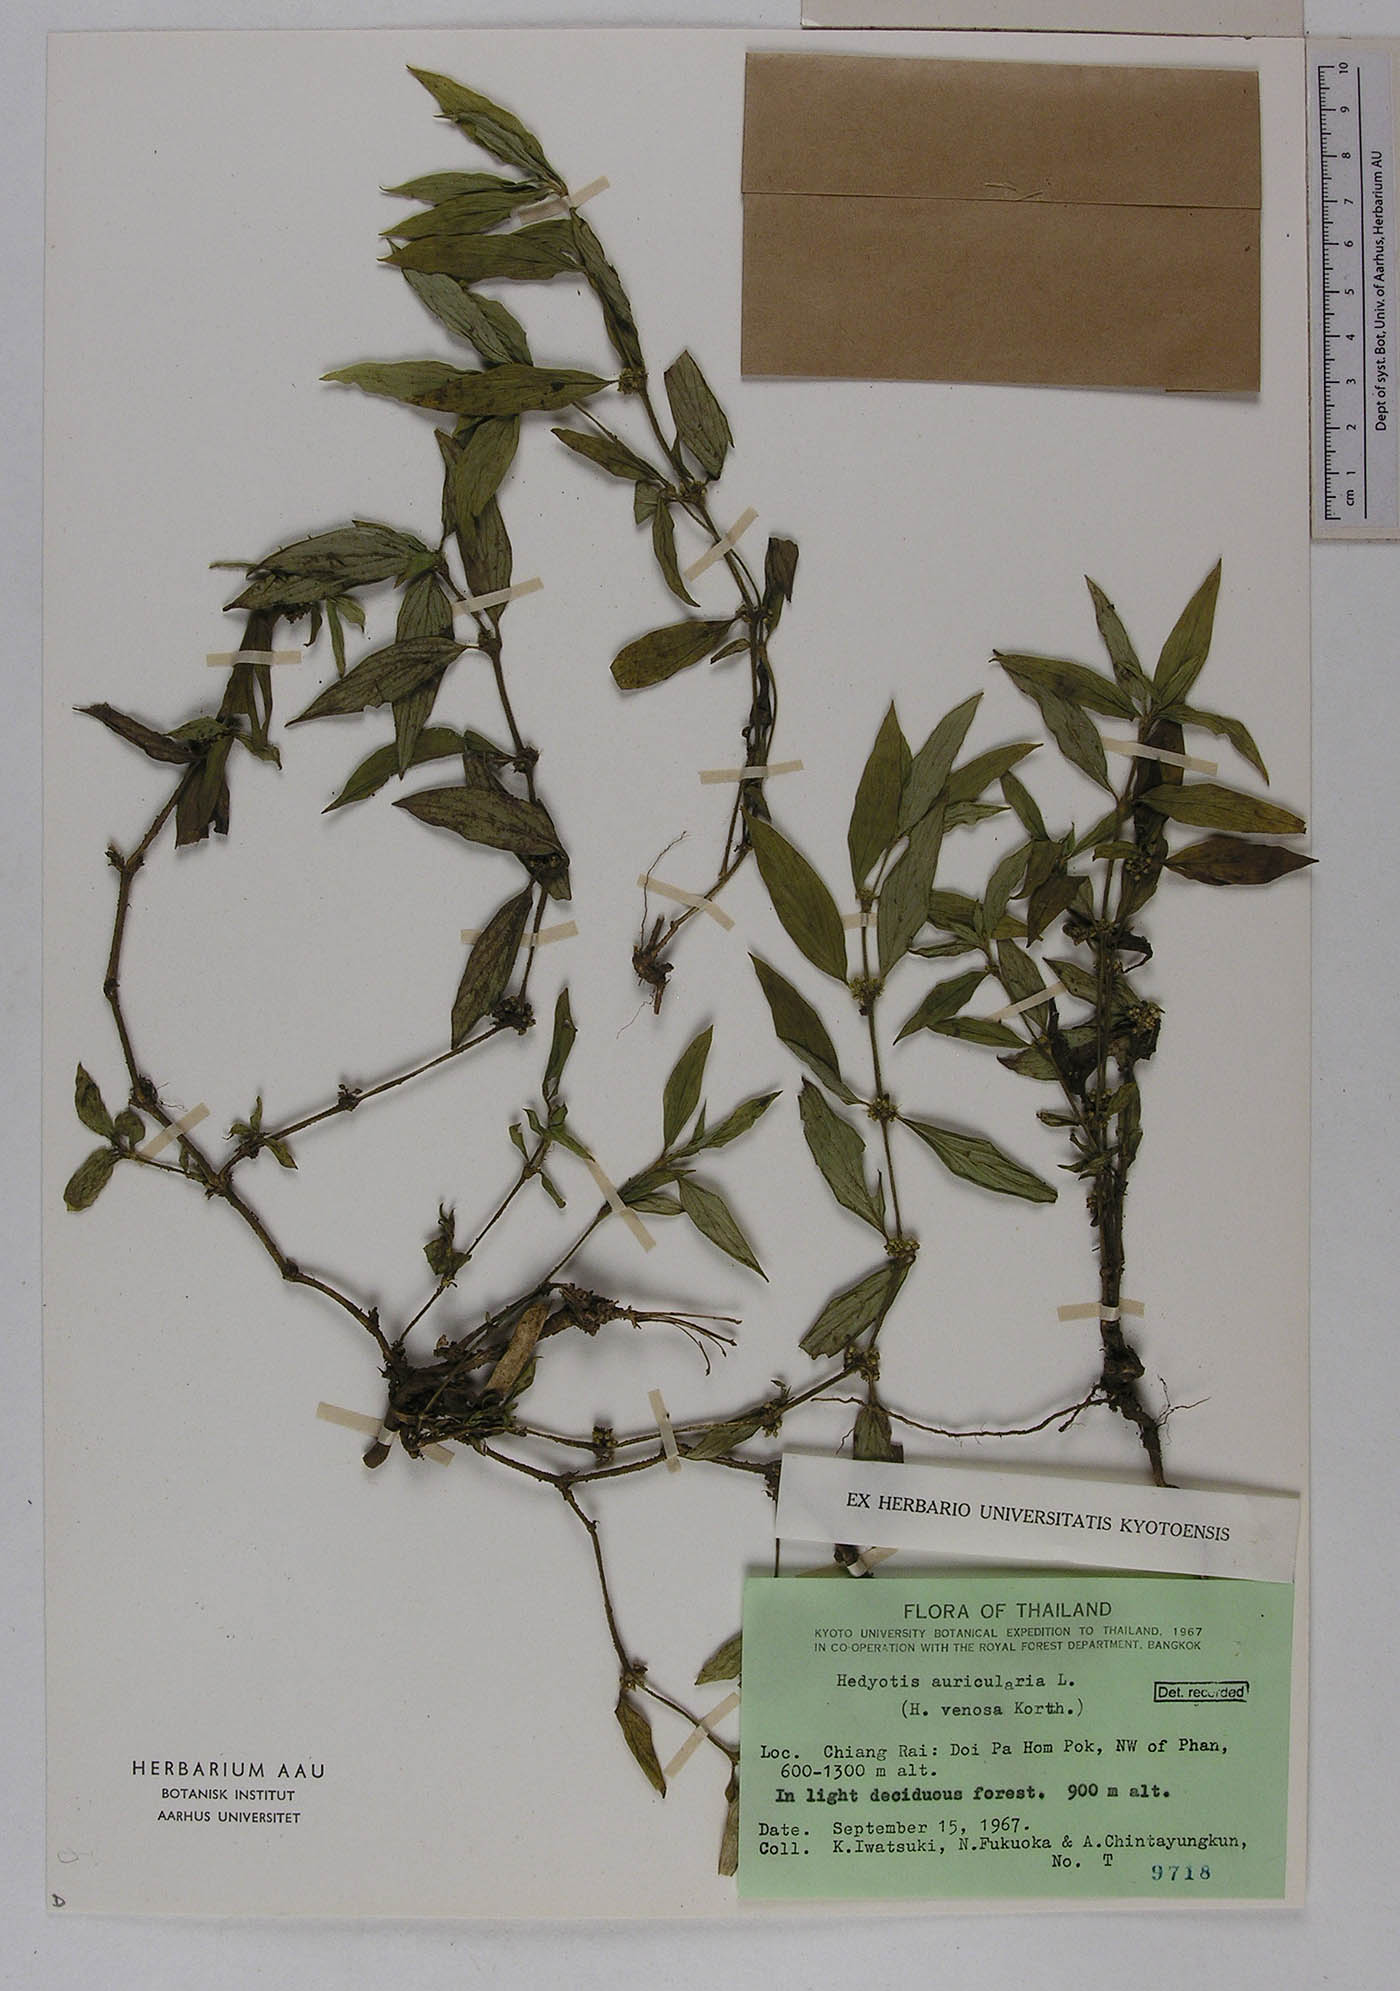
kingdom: Plantae
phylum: Tracheophyta
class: Magnoliopsida
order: Gentianales
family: Rubiaceae
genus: Exallage
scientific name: Exallage auricularia
